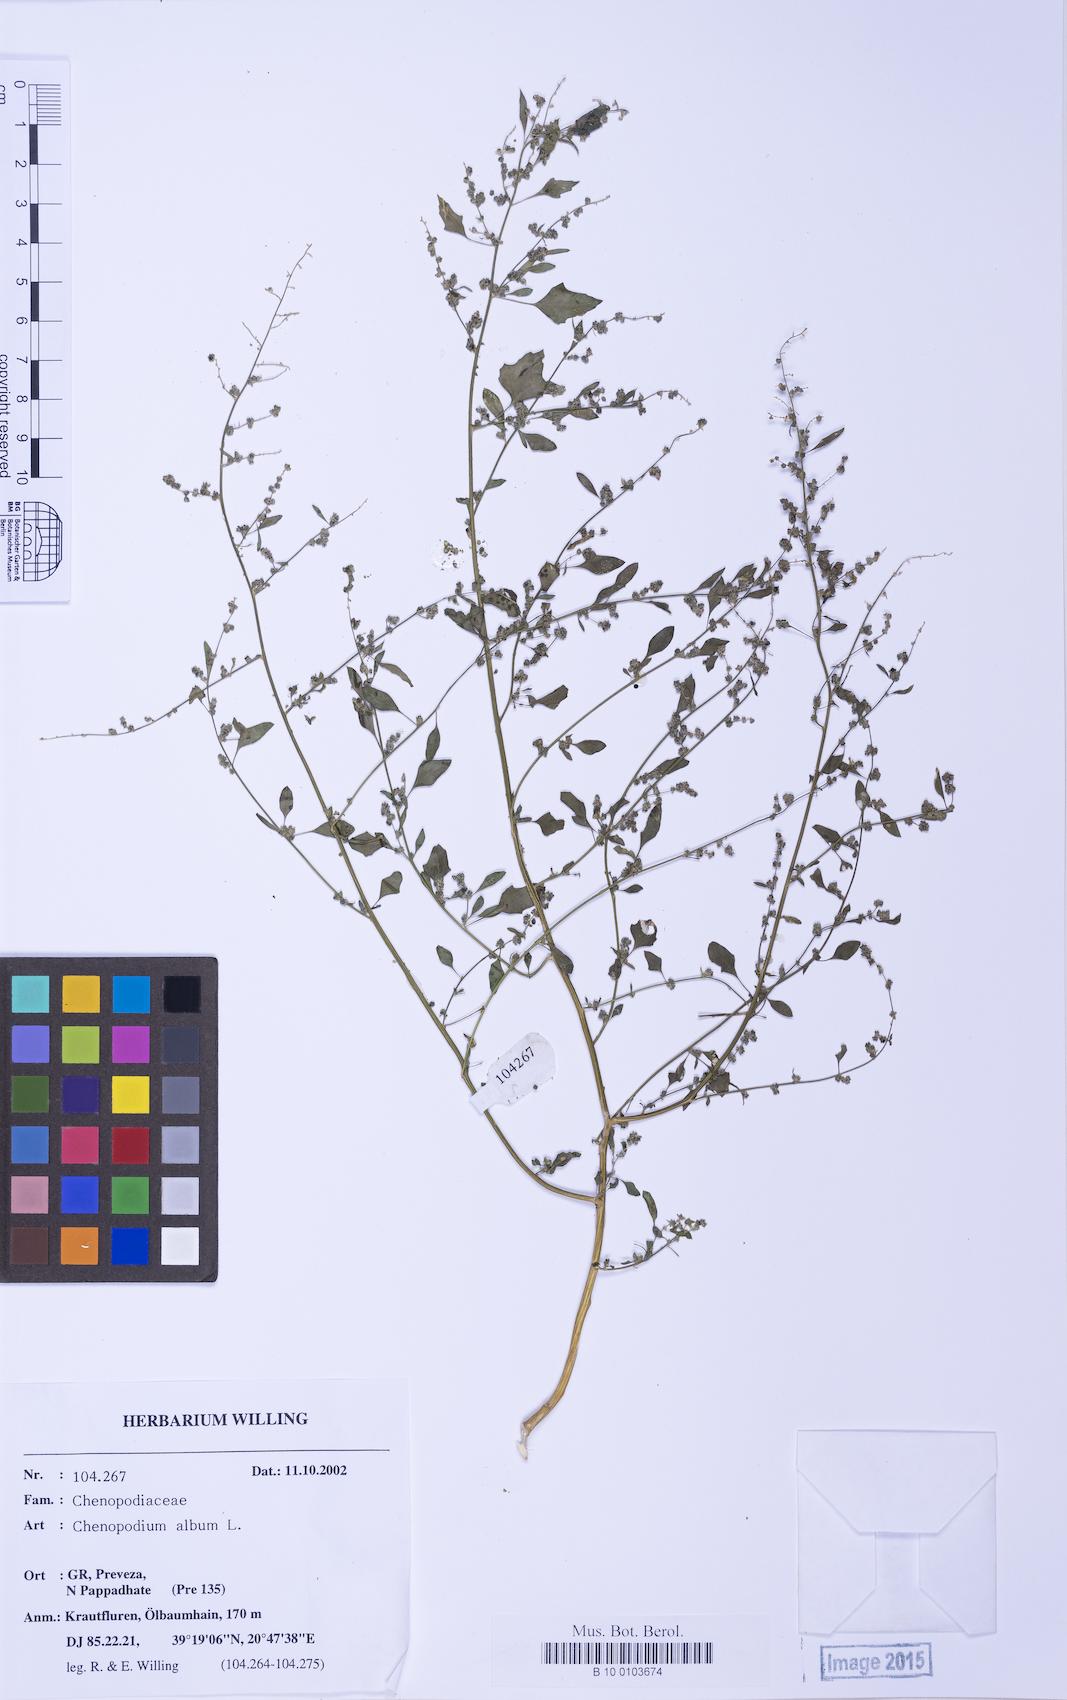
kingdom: Plantae
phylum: Tracheophyta
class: Magnoliopsida
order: Caryophyllales
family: Amaranthaceae
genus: Chenopodium
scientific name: Chenopodium striatiforme
